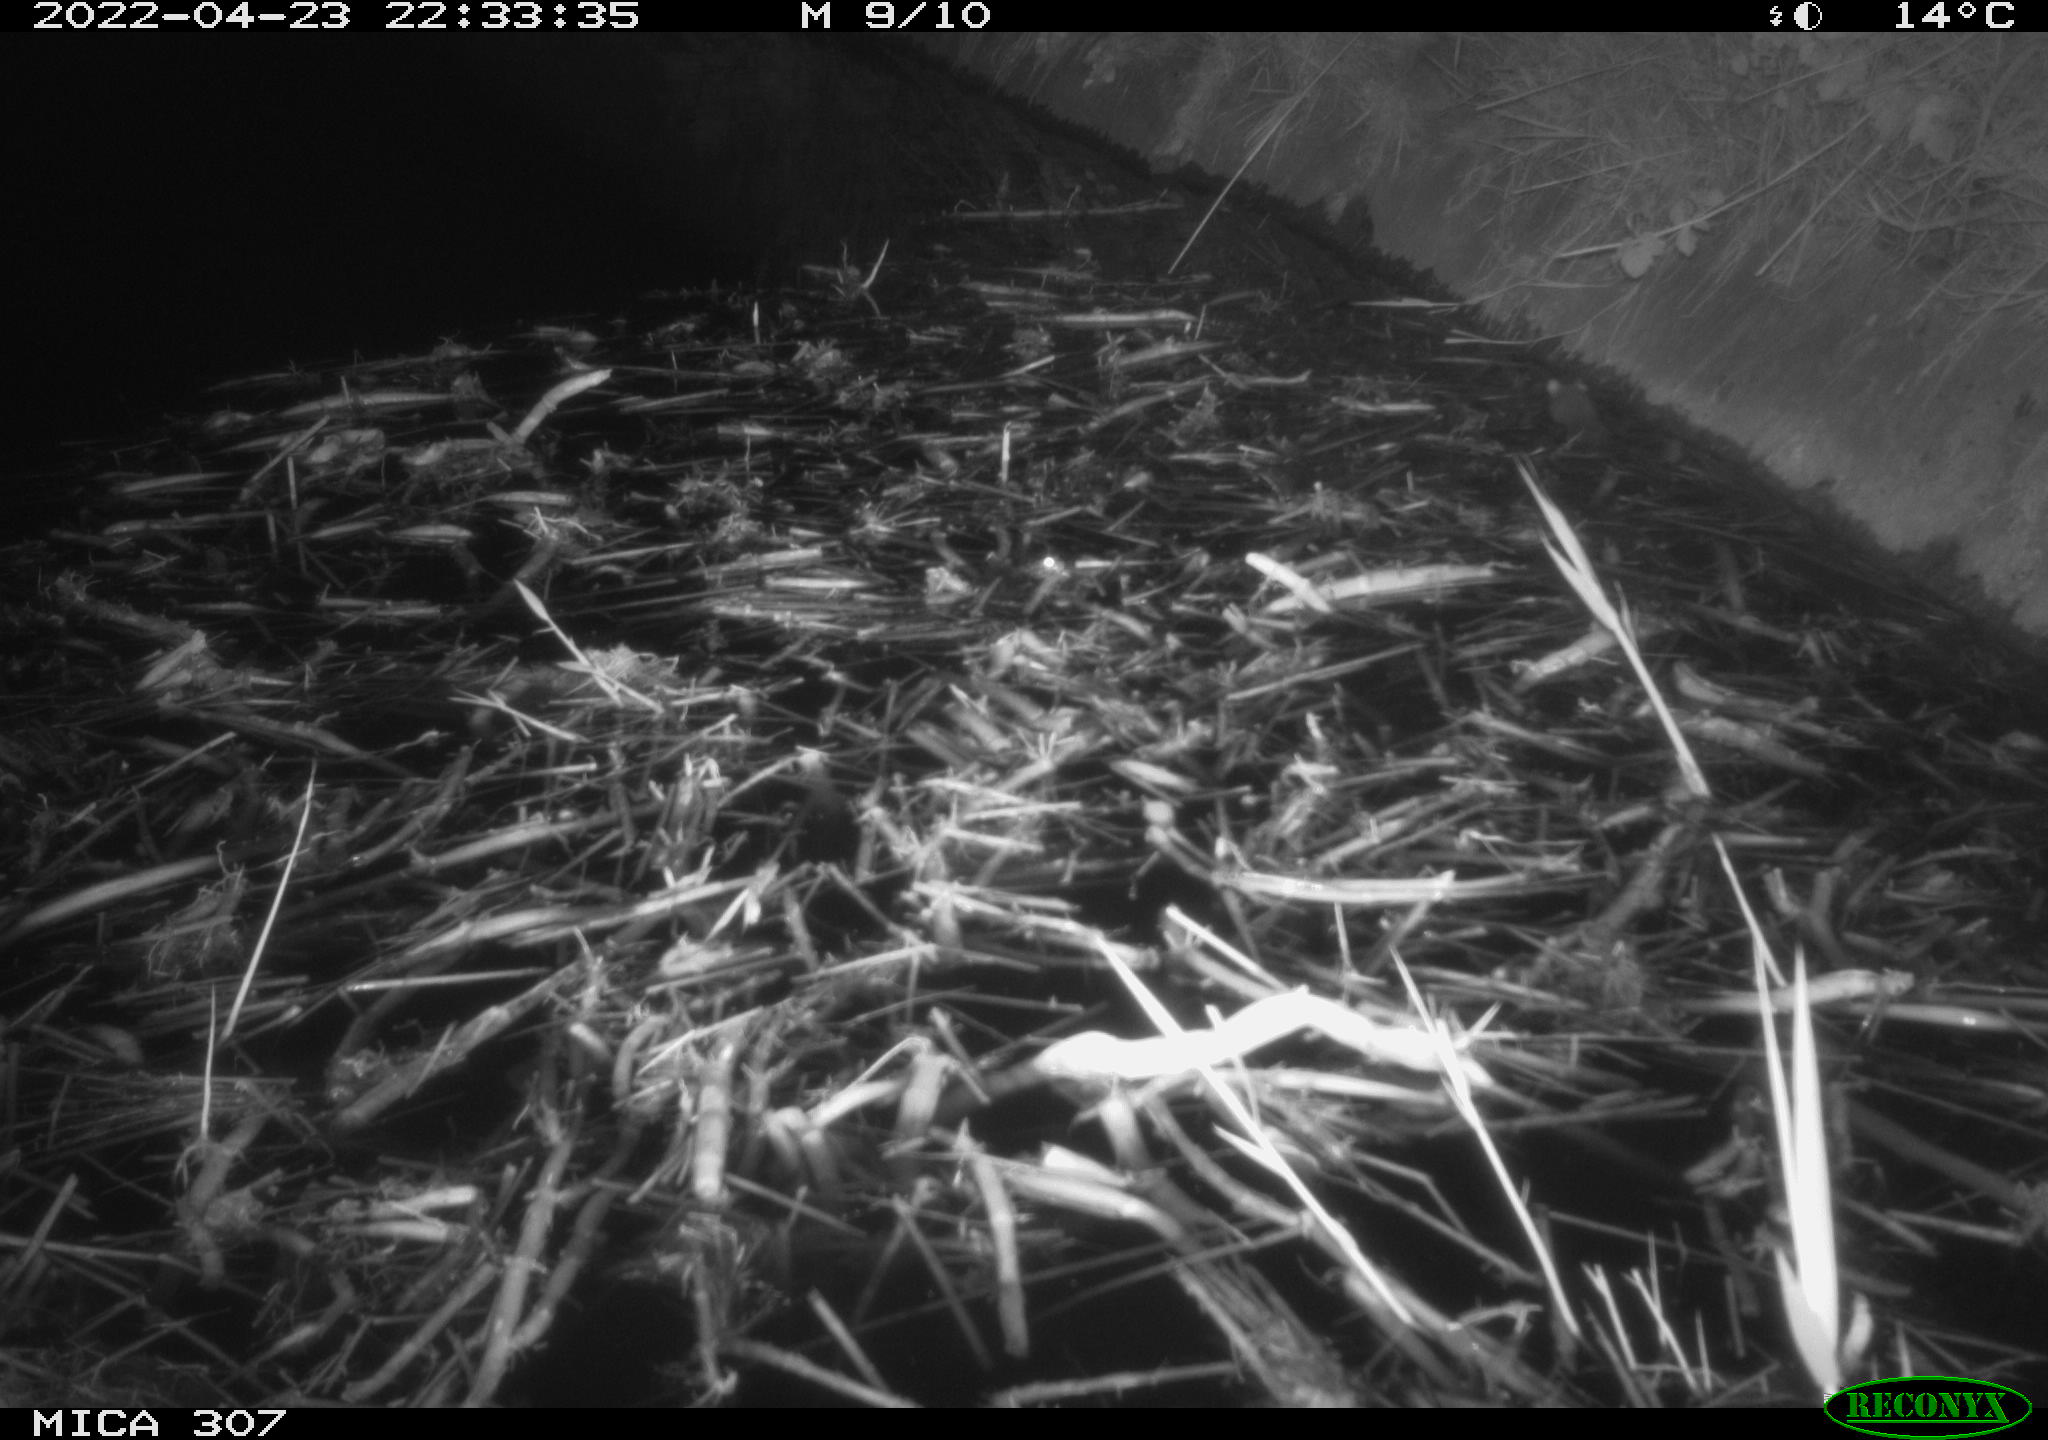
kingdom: Animalia
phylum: Chordata
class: Mammalia
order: Rodentia
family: Cricetidae
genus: Ondatra
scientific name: Ondatra zibethicus
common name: Muskrat
